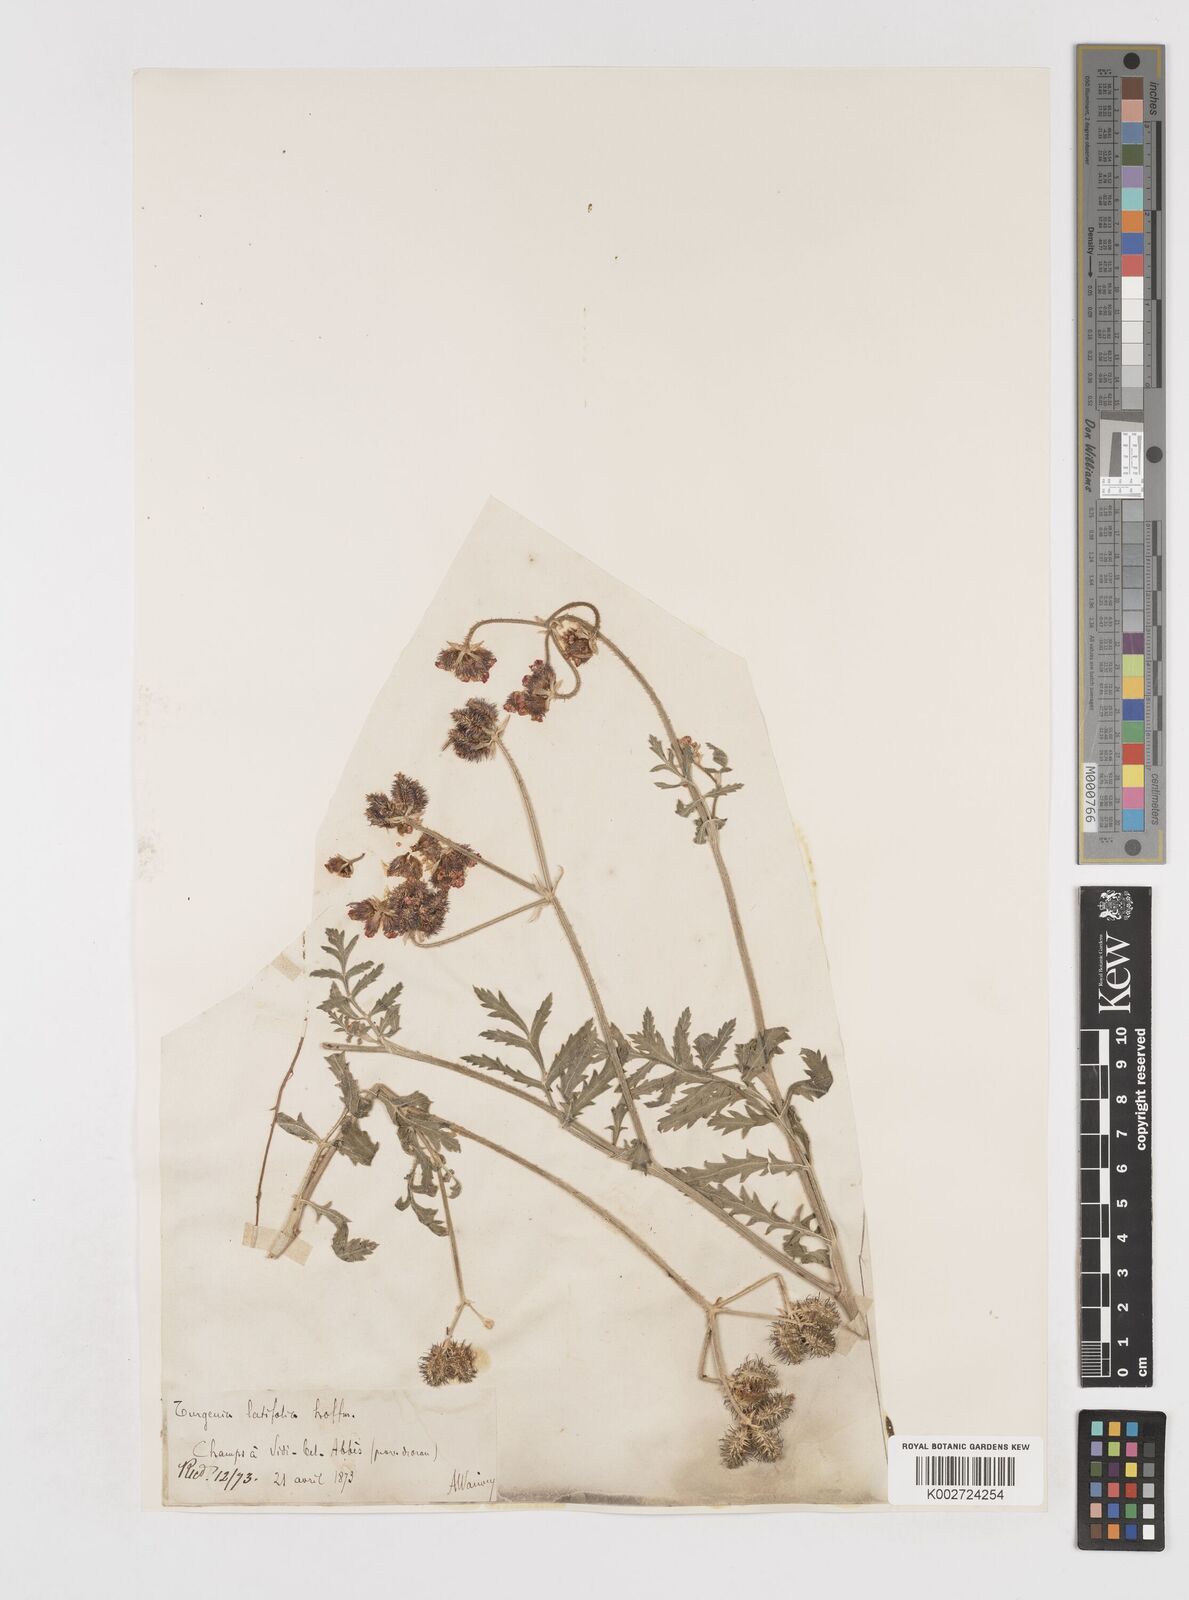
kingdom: Plantae
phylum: Tracheophyta
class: Magnoliopsida
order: Apiales
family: Apiaceae
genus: Turgenia
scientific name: Turgenia latifolia
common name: Greater bur-parsley
